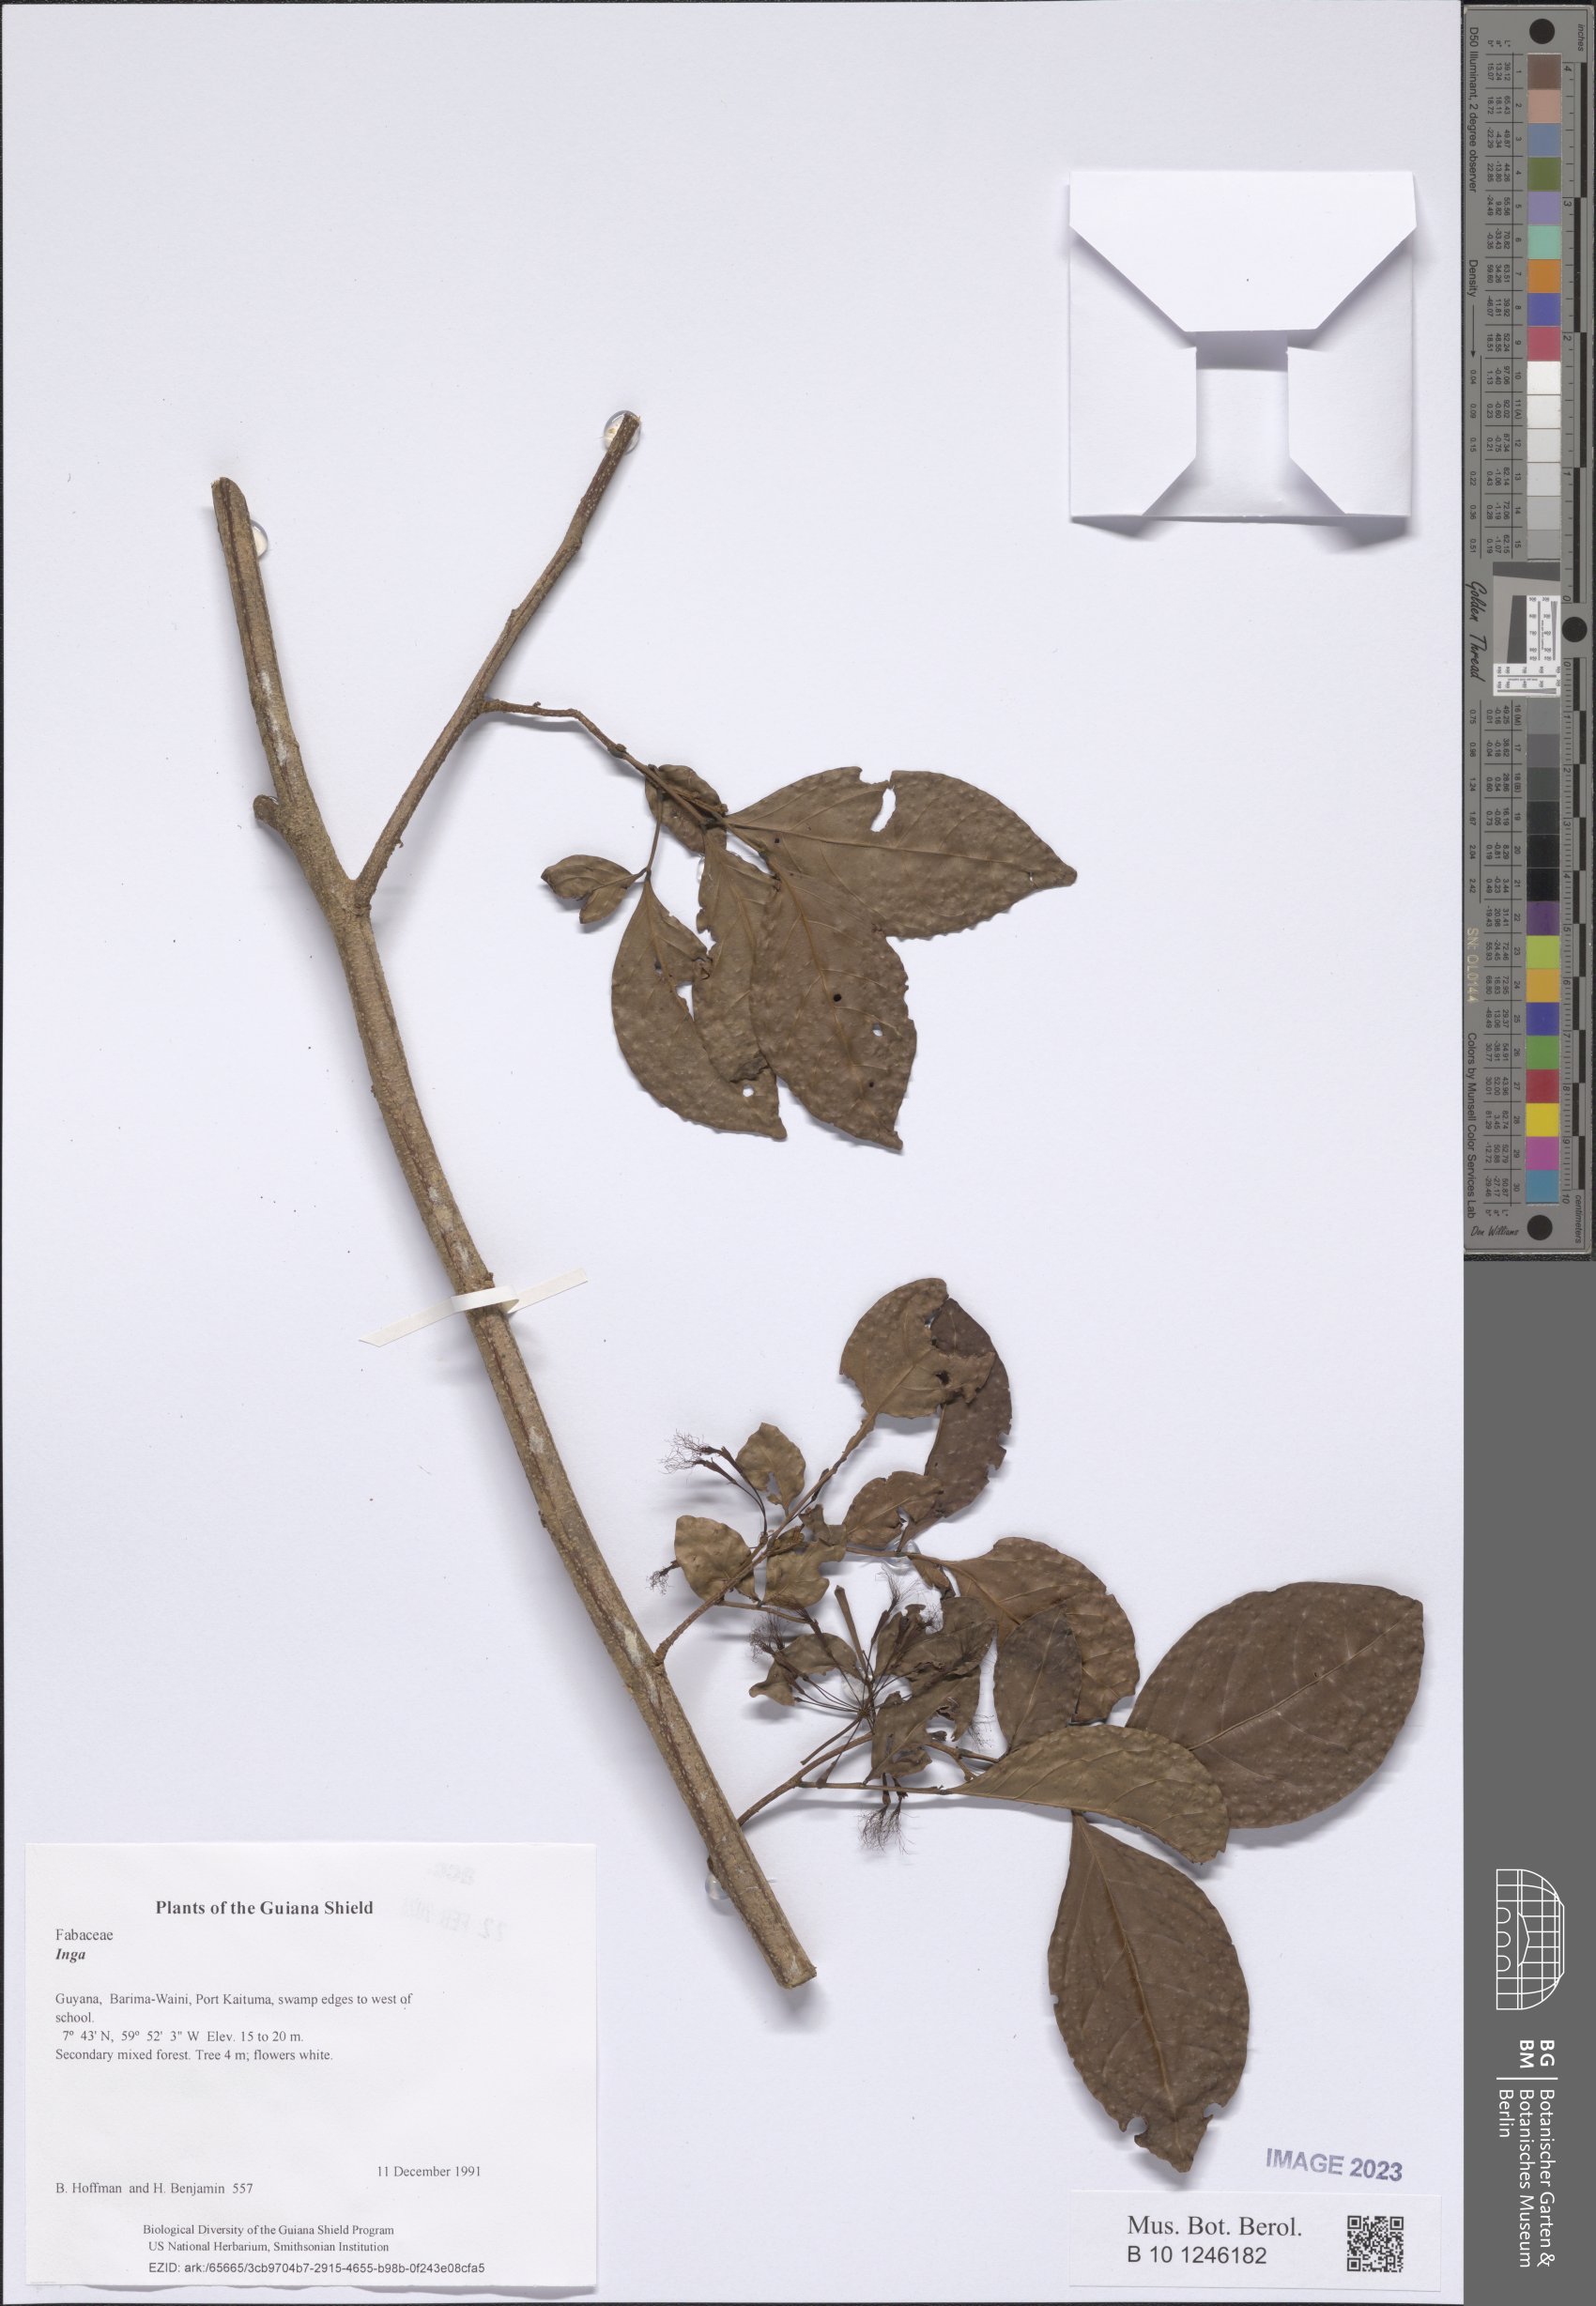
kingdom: Plantae
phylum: Tracheophyta
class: Magnoliopsida
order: Fabales
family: Fabaceae
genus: Inga
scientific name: Inga
